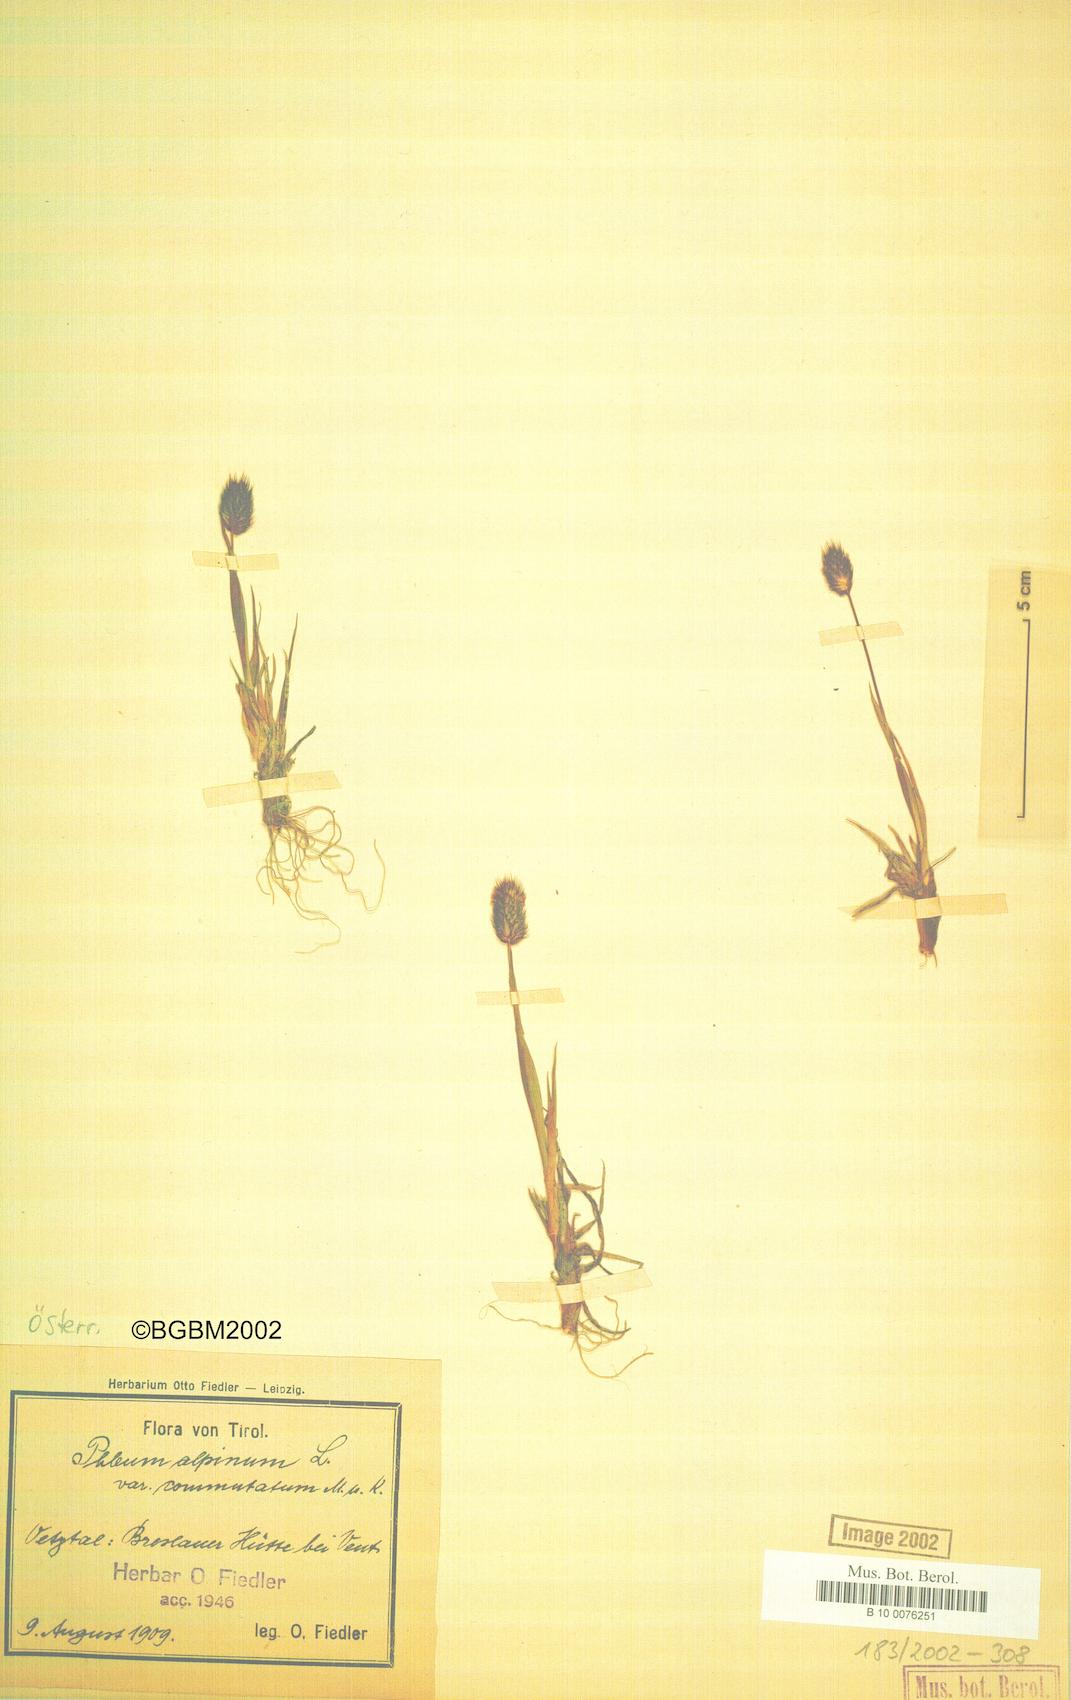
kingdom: Plantae
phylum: Tracheophyta
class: Liliopsida
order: Poales
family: Poaceae
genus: Phleum
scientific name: Phleum alpinum
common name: Alpine cat's-tail
